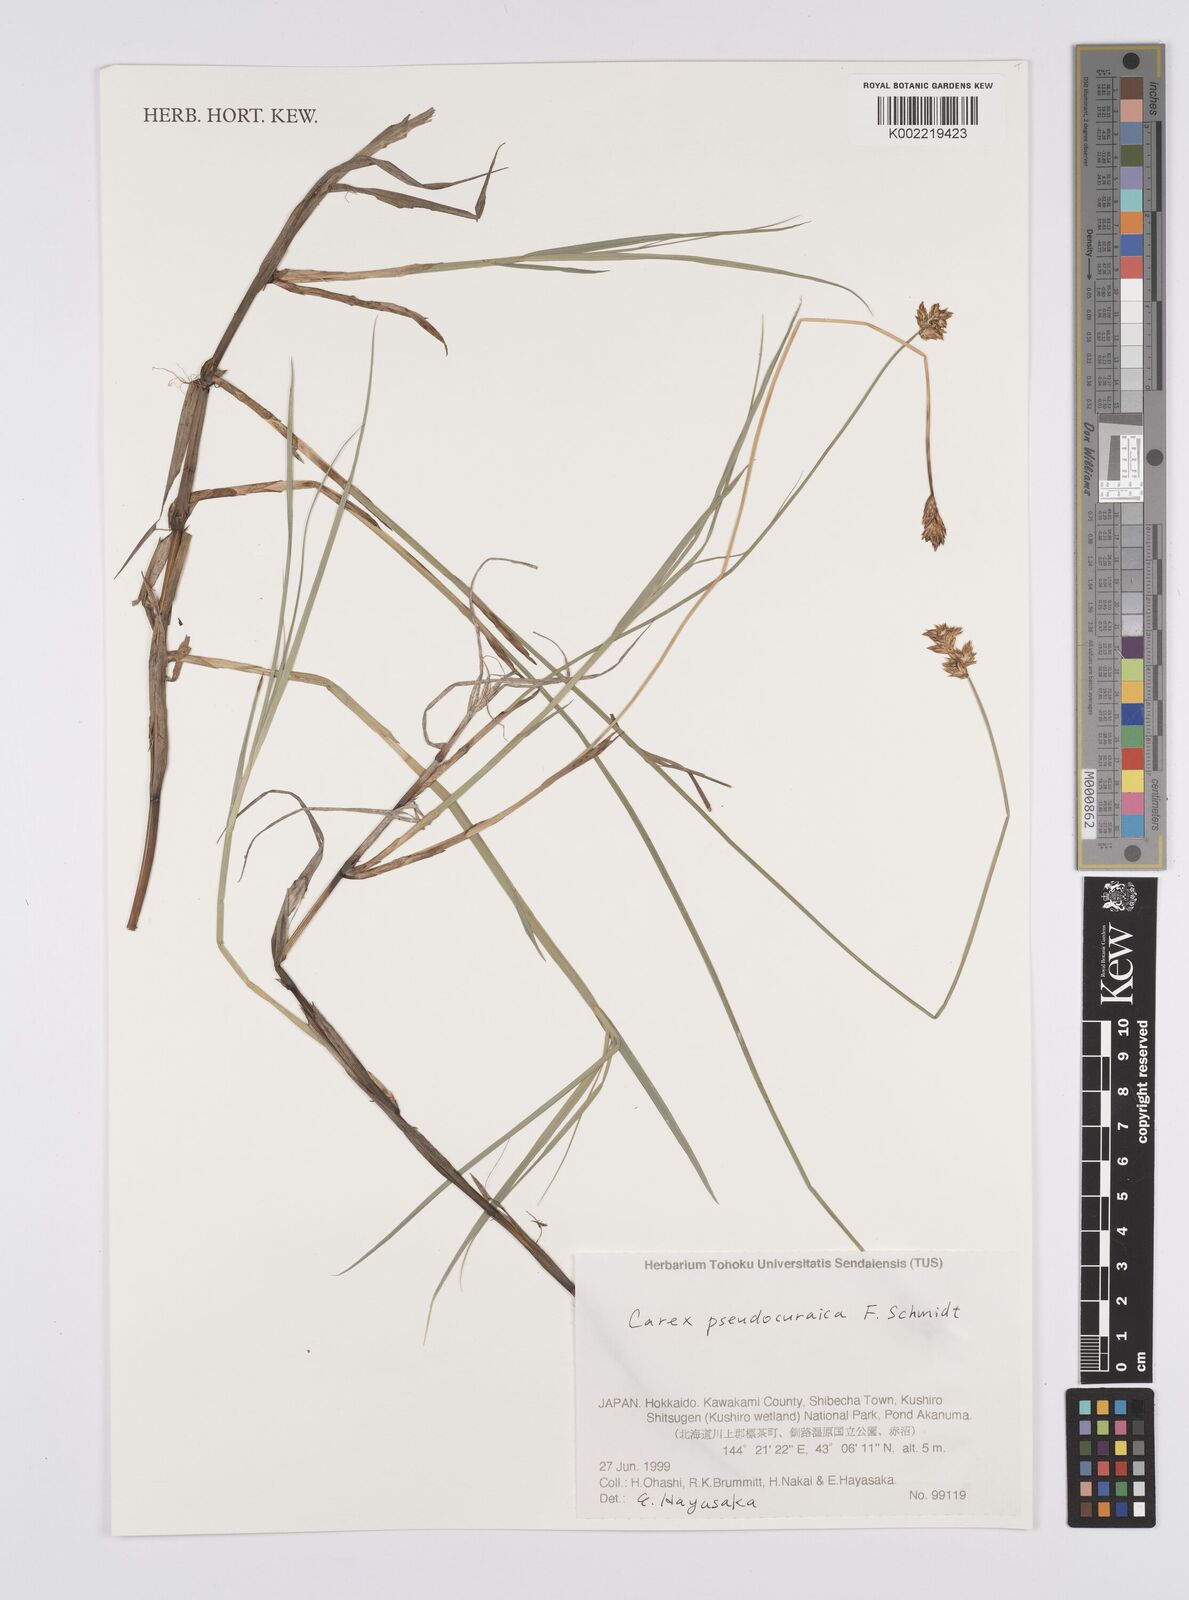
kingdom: Plantae
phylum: Tracheophyta
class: Liliopsida
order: Poales
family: Cyperaceae
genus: Carex
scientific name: Carex pseudocuraica
